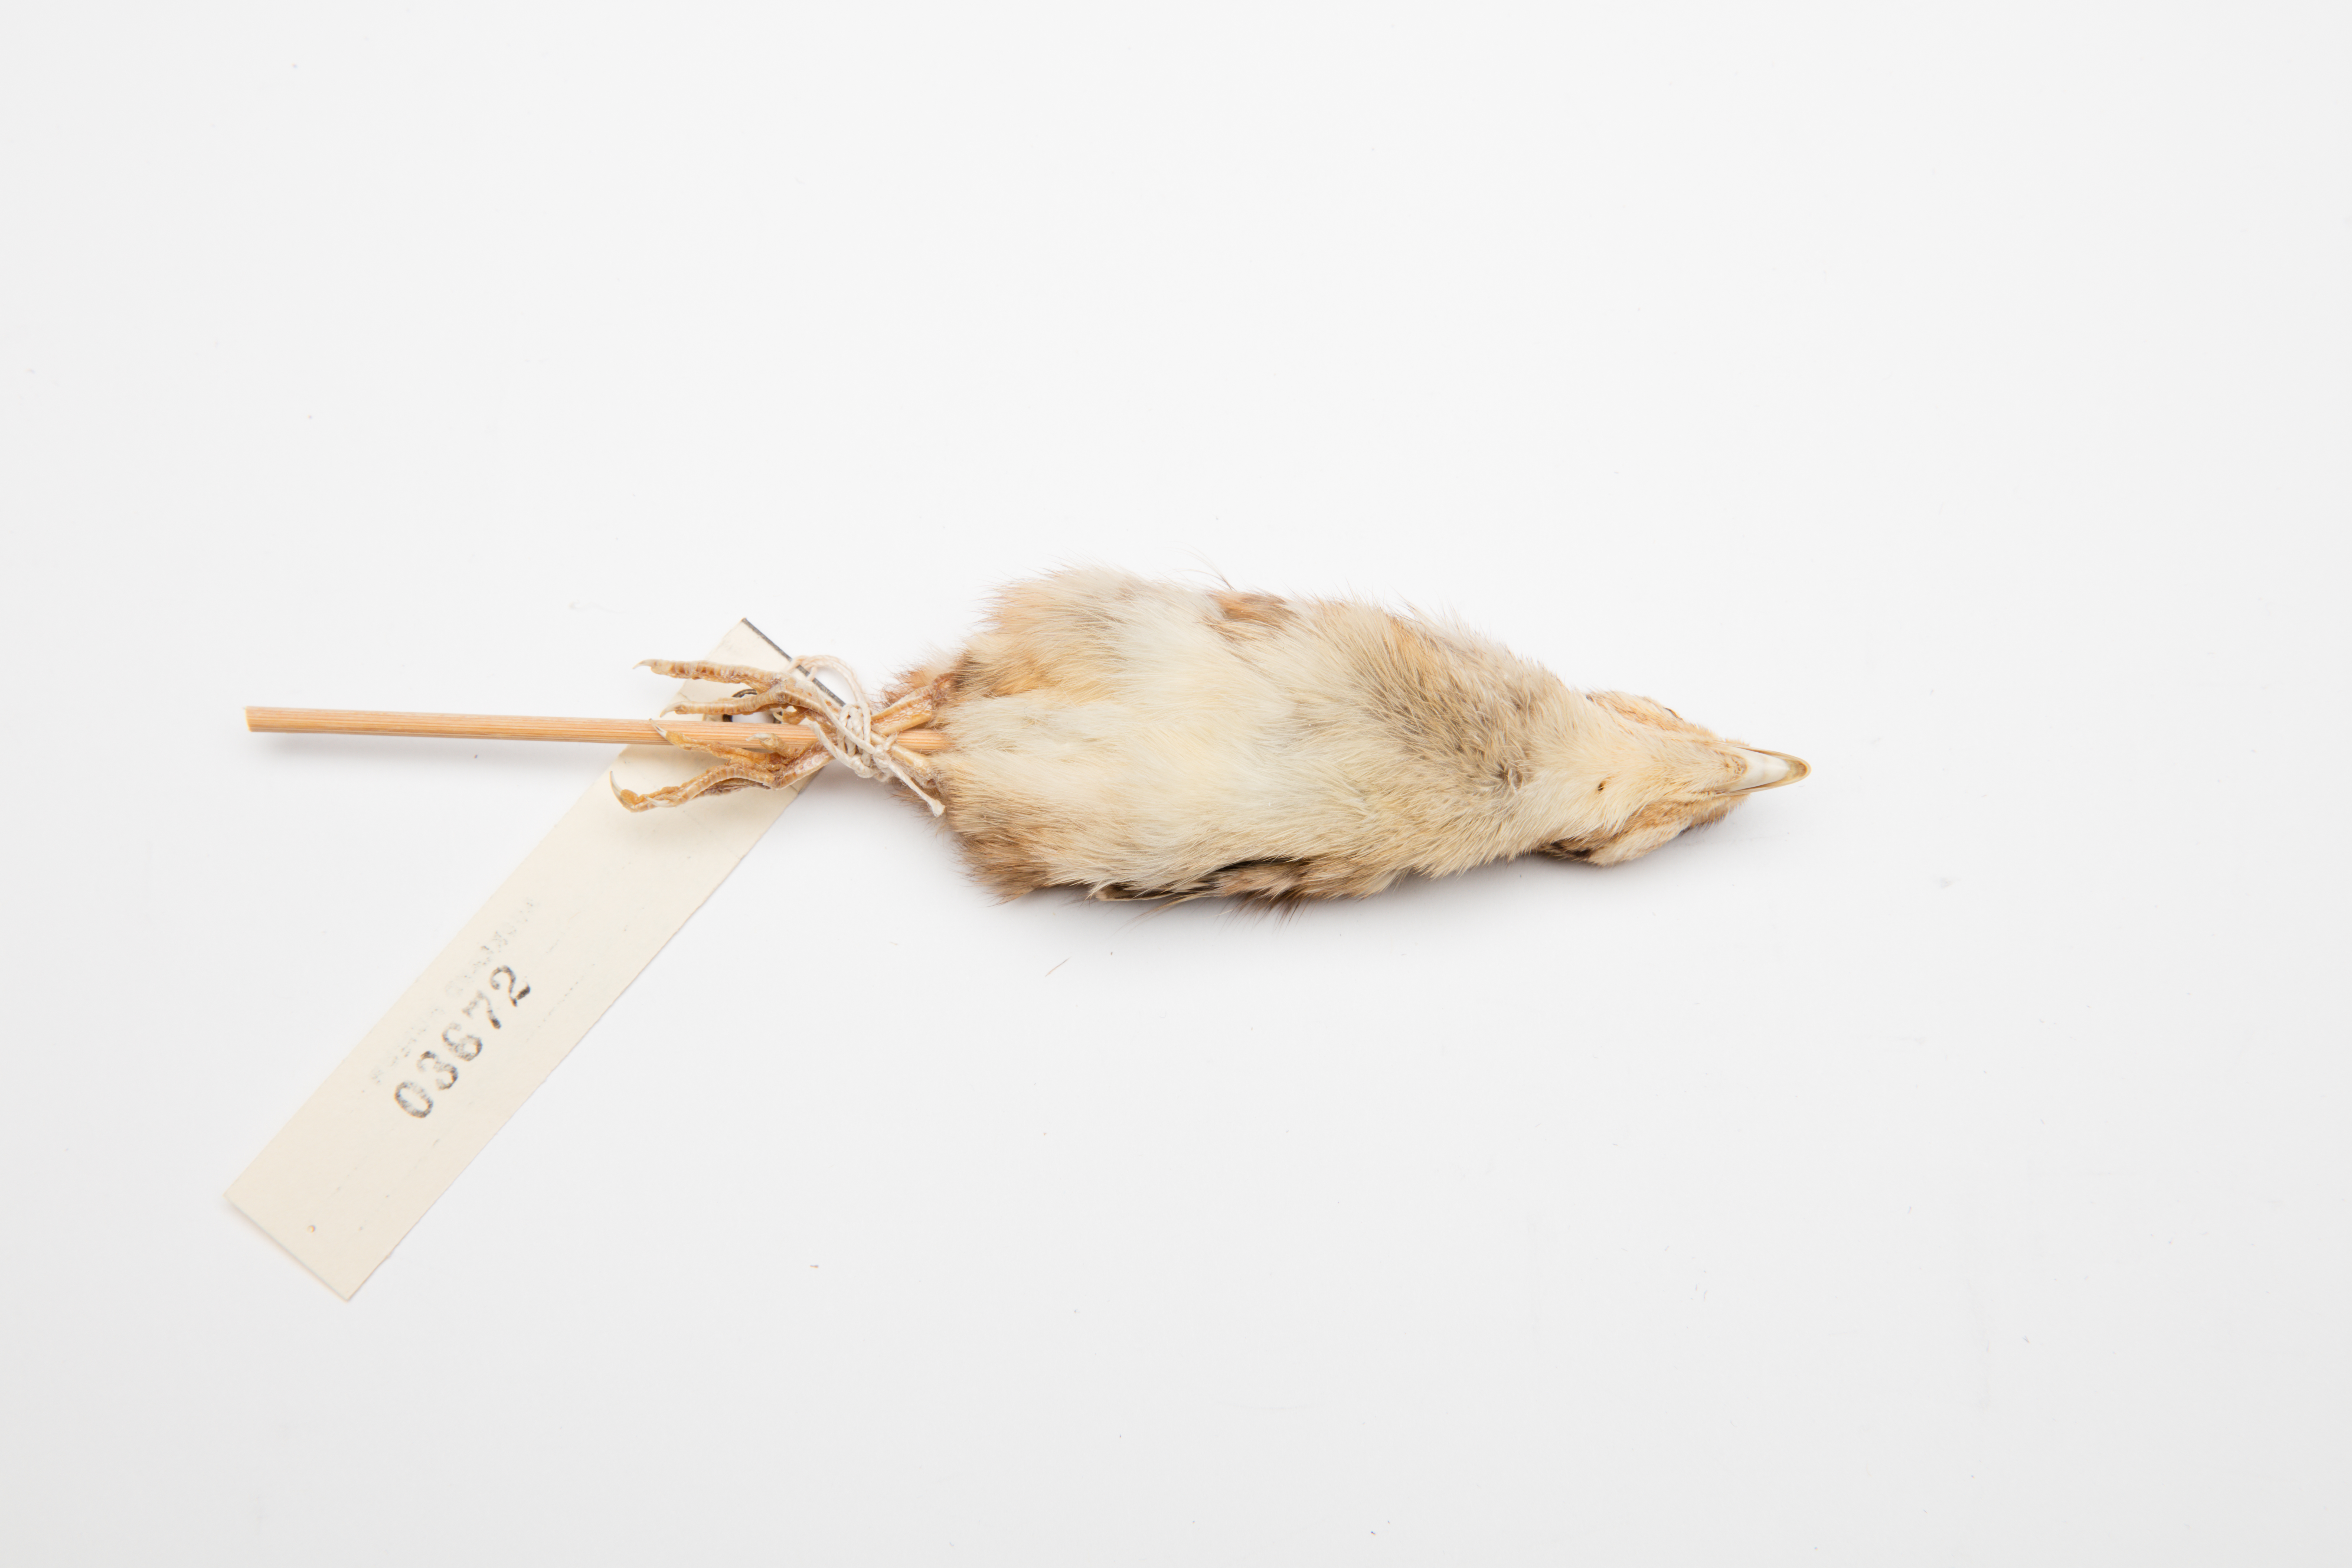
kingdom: Animalia
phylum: Chordata
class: Aves
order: Galliformes
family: Phasianidae
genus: Phasianus
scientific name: Phasianus colchicus
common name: Common pheasant
